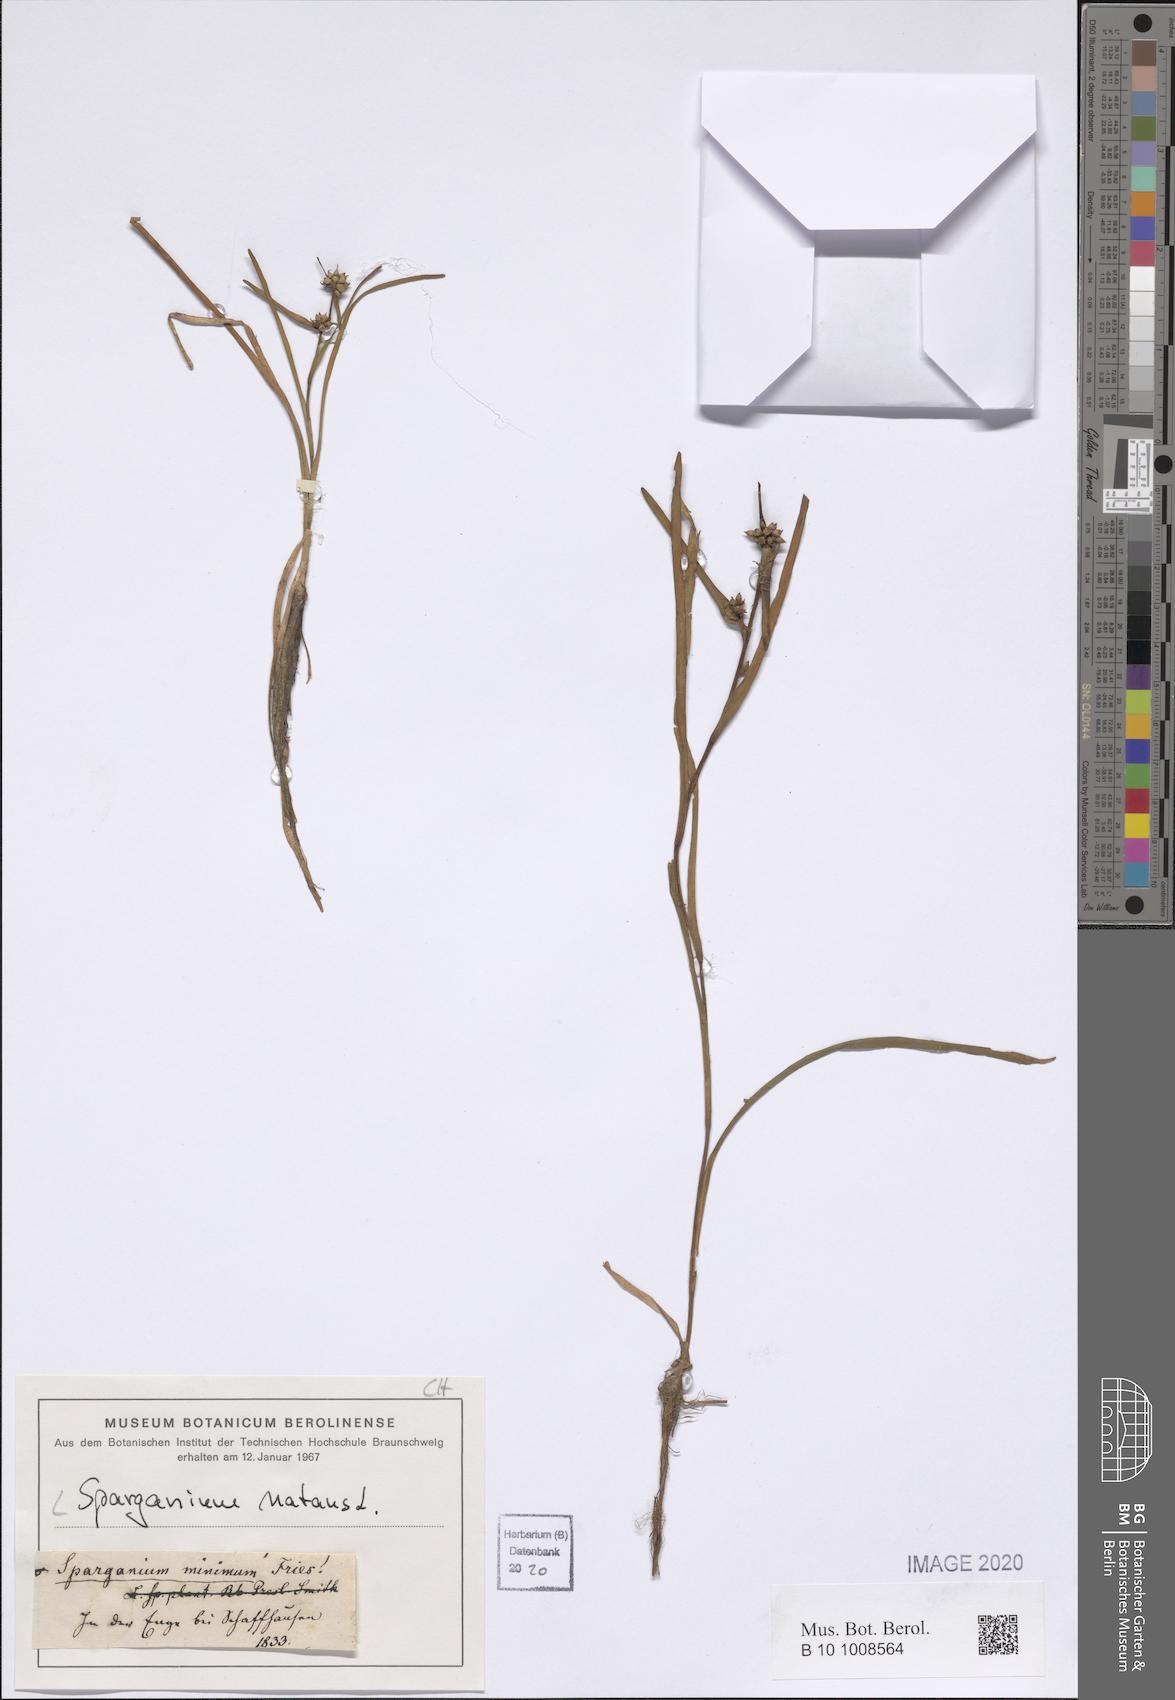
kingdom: Plantae
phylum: Tracheophyta
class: Liliopsida
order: Poales
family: Typhaceae
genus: Sparganium
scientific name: Sparganium natans
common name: Least bur-reed
